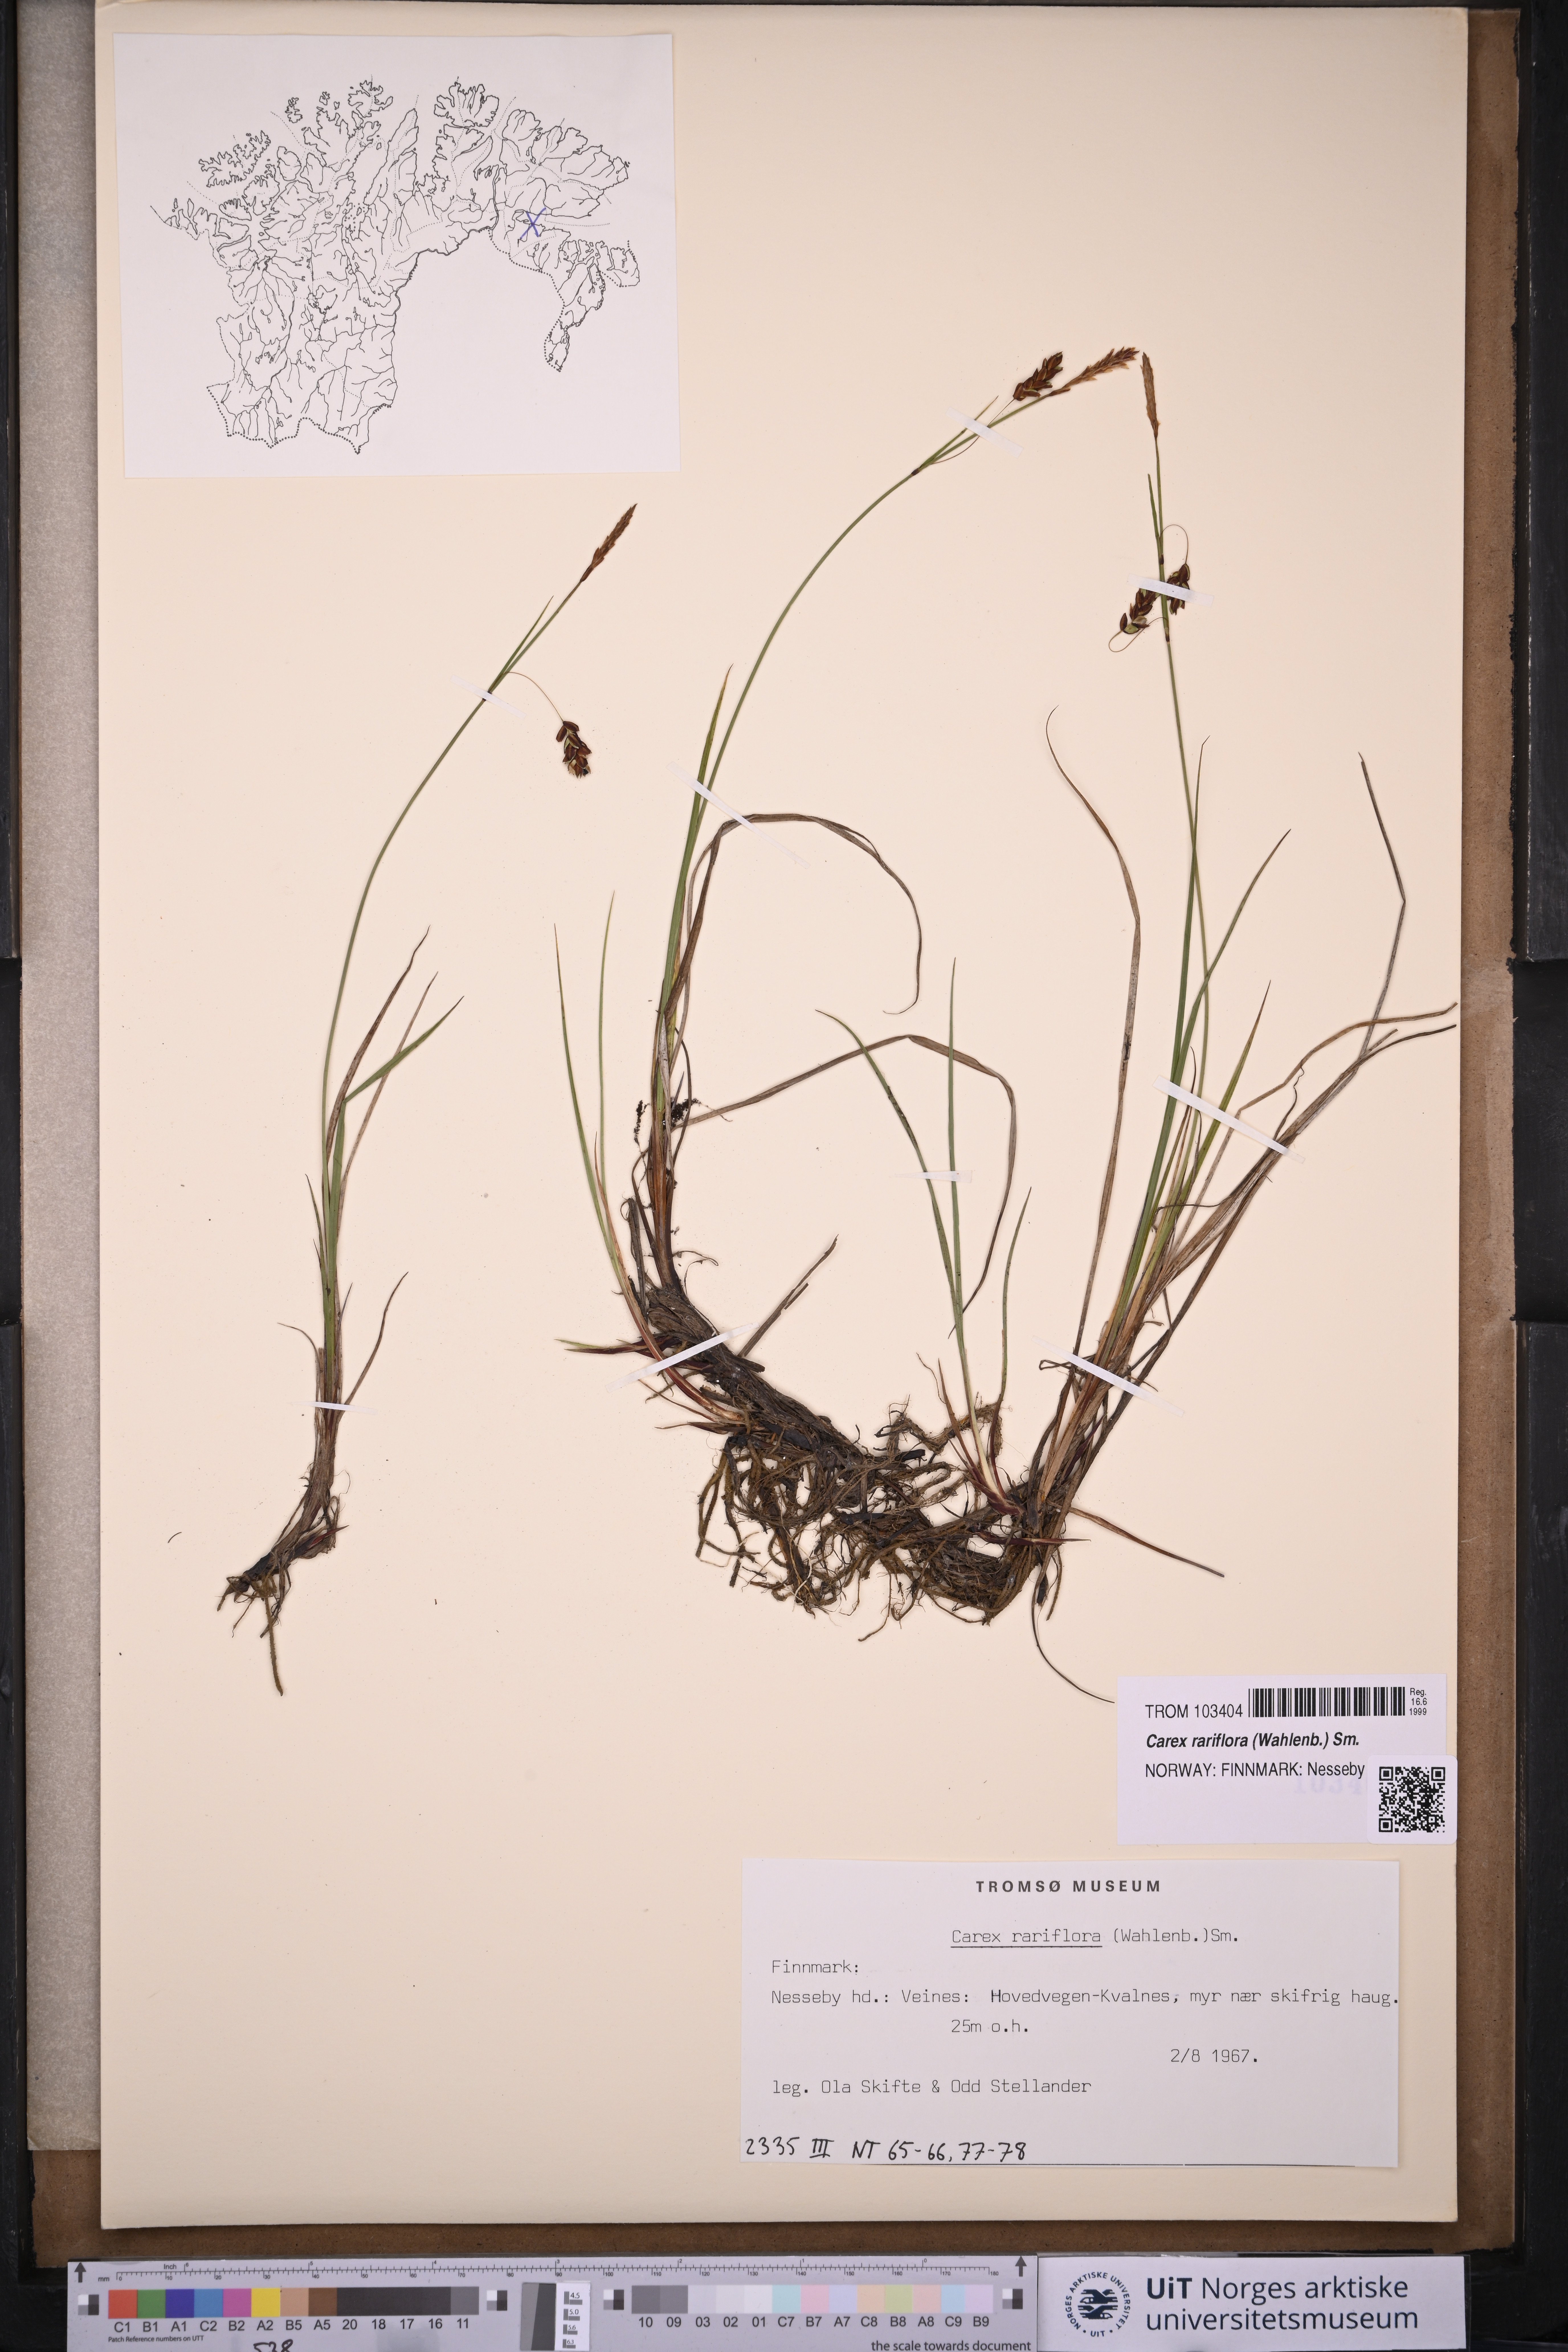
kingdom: Plantae
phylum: Tracheophyta
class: Liliopsida
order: Poales
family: Cyperaceae
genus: Carex
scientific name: Carex rariflora
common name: Loose-flowered alpine sedge
